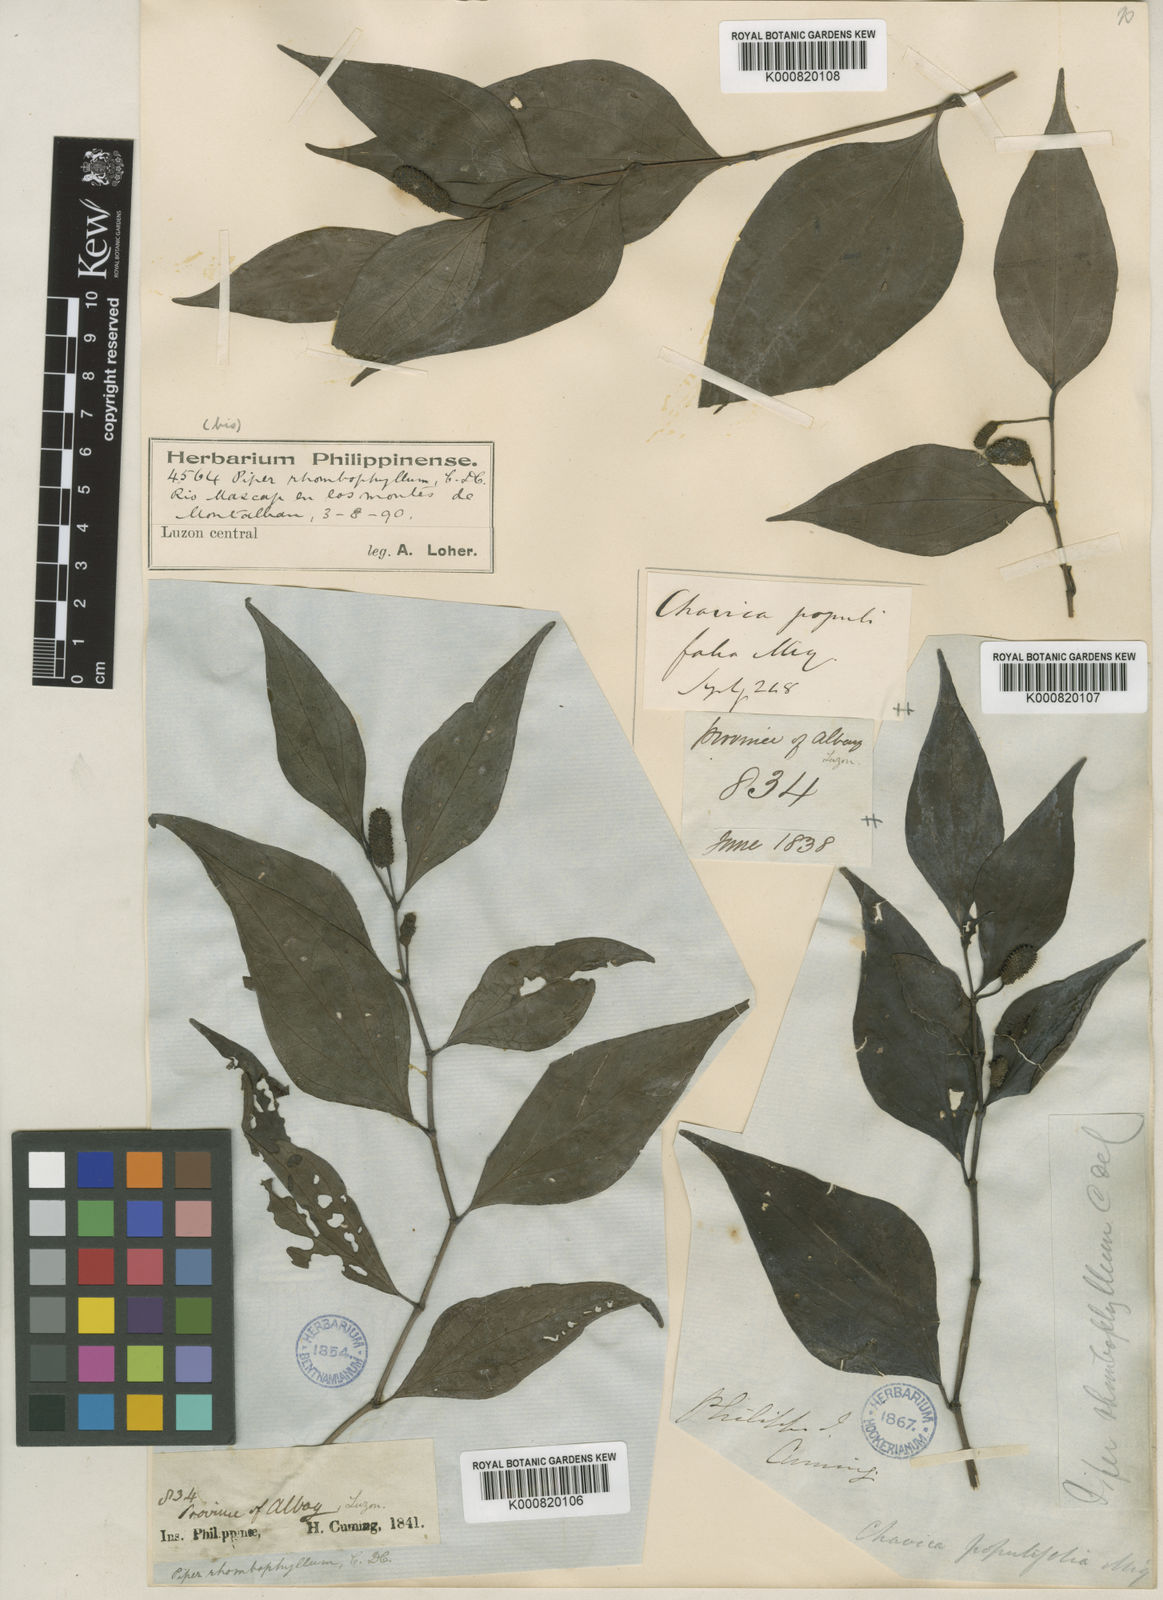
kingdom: Plantae
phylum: Tracheophyta
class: Magnoliopsida
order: Piperales
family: Piperaceae
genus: Piper
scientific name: Piper abbreviatum
